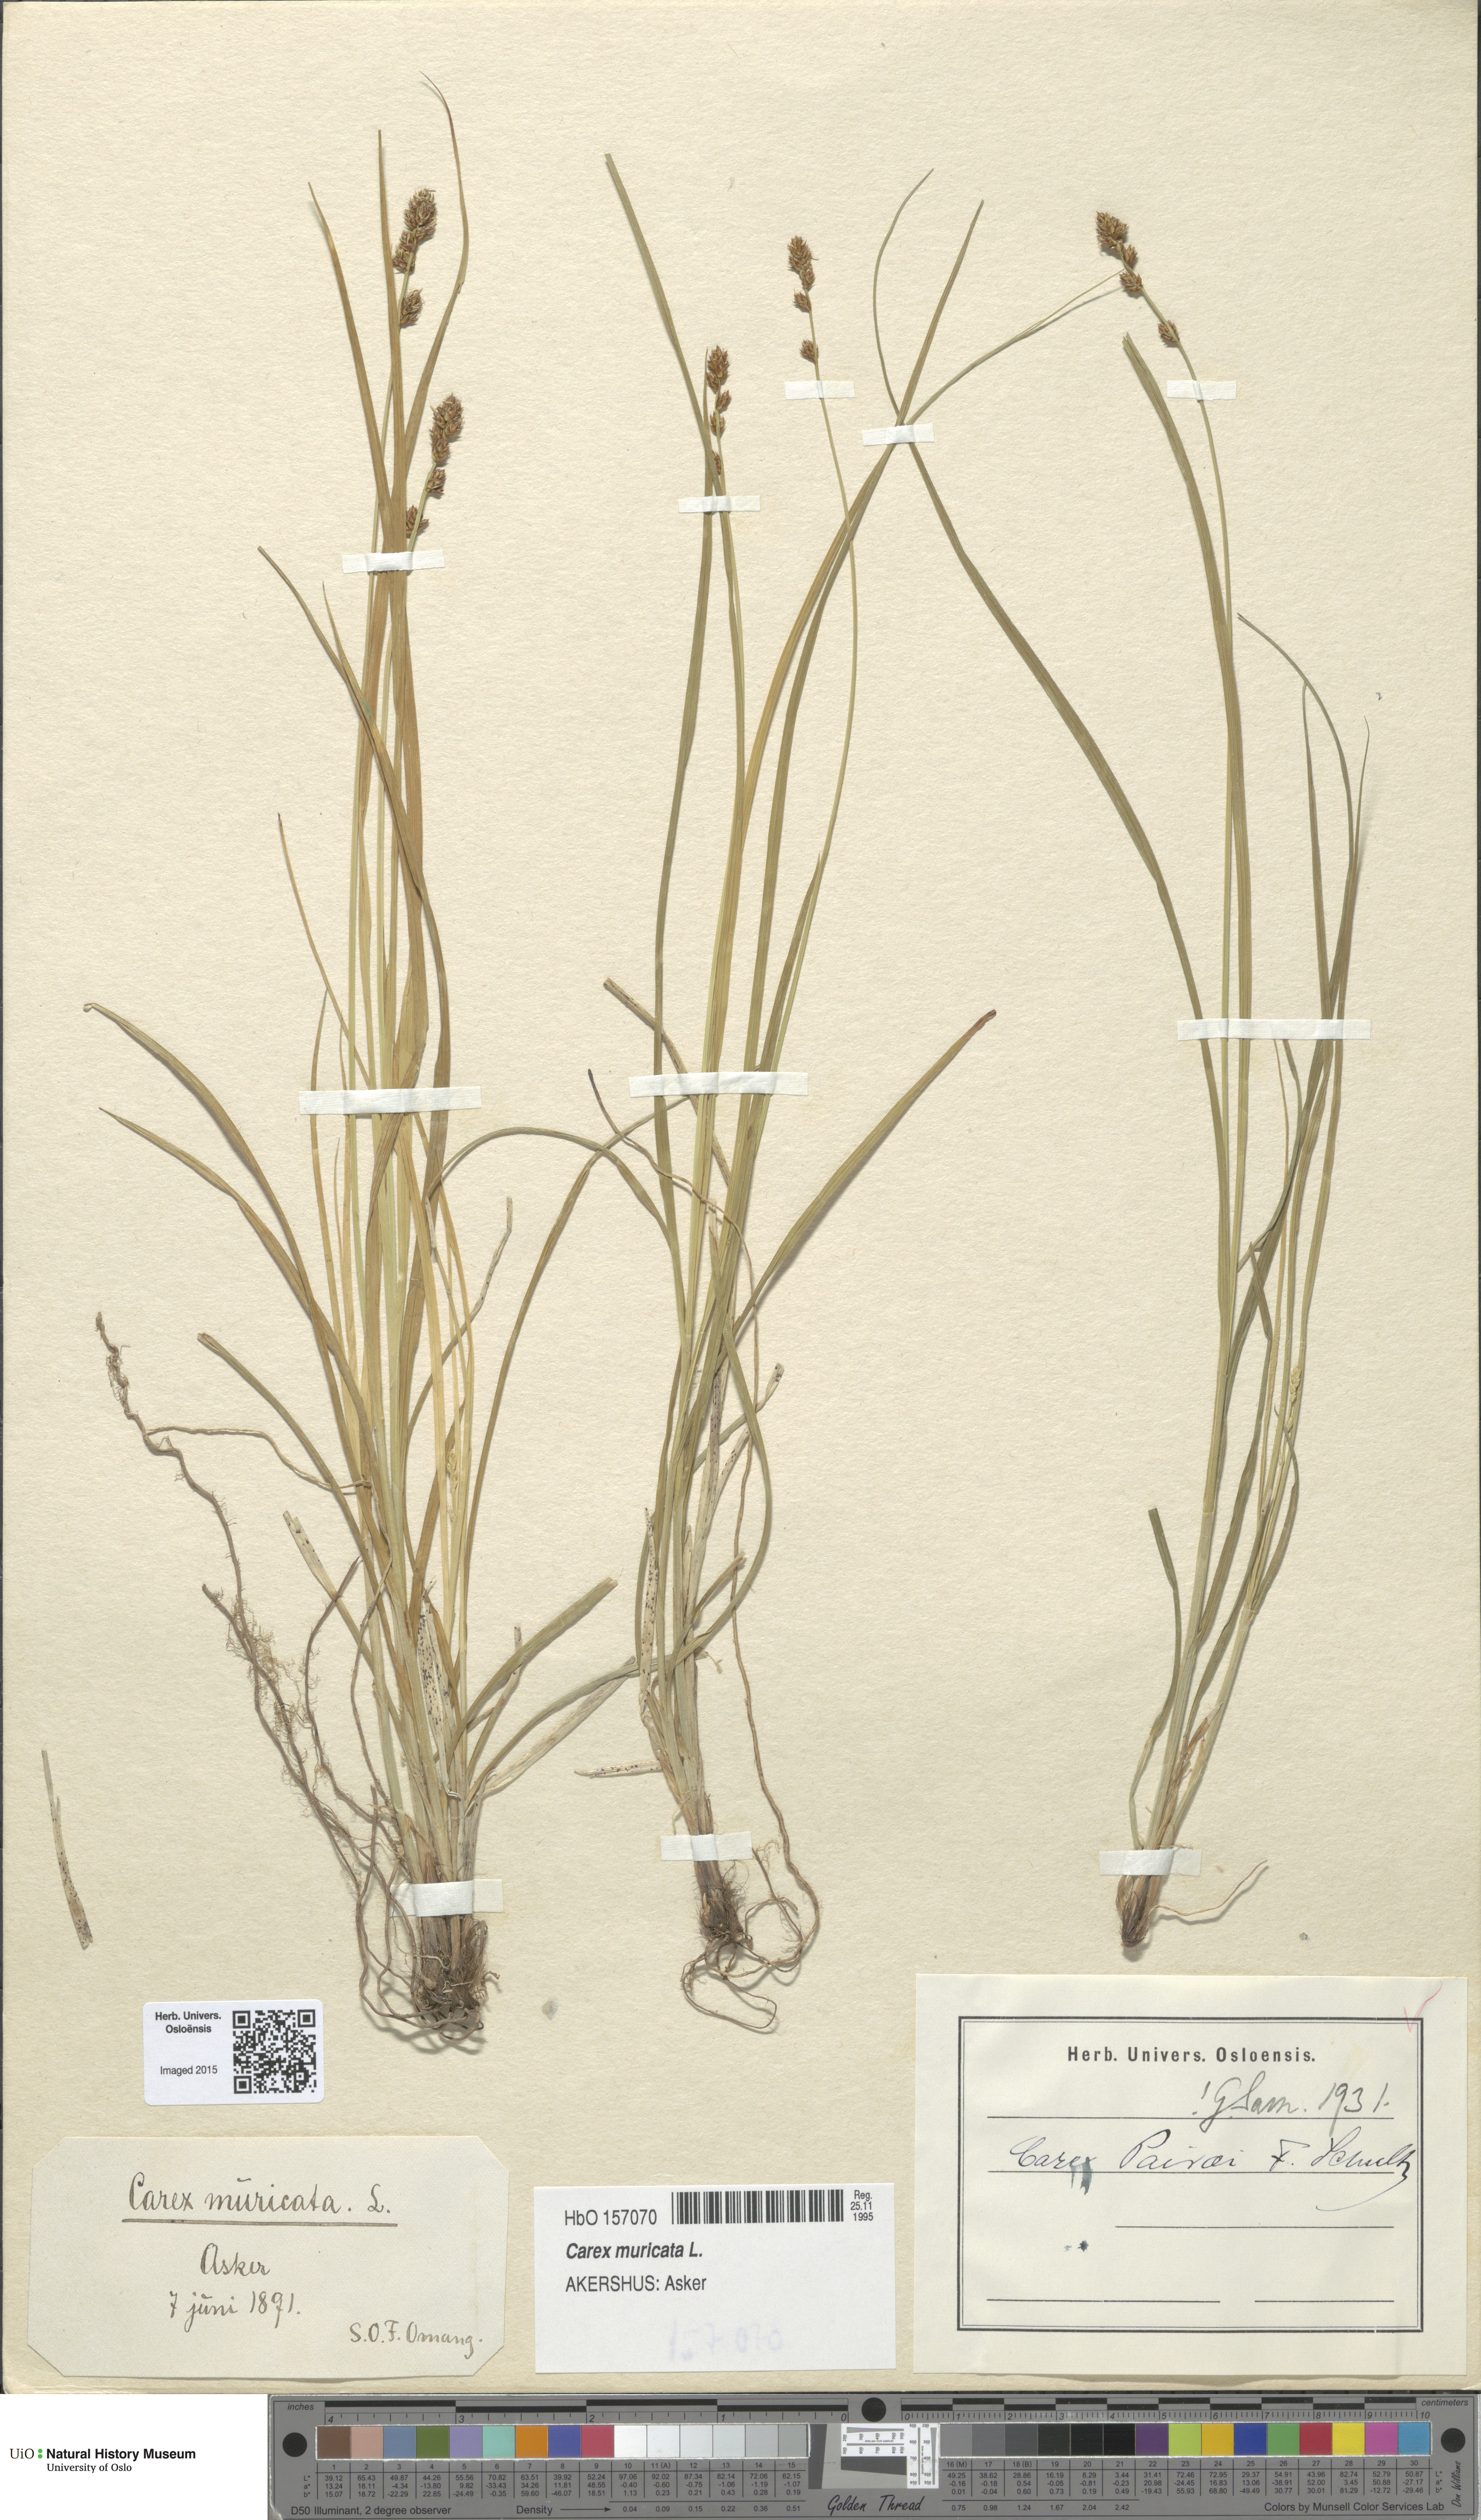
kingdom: Plantae
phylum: Tracheophyta
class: Liliopsida
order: Poales
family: Cyperaceae
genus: Carex
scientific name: Carex pairae
